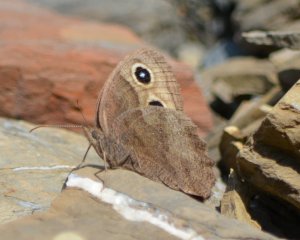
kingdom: Animalia
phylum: Arthropoda
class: Insecta
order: Lepidoptera
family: Nymphalidae
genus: Cercyonis
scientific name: Cercyonis pegala
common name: Common Wood-Nymph
